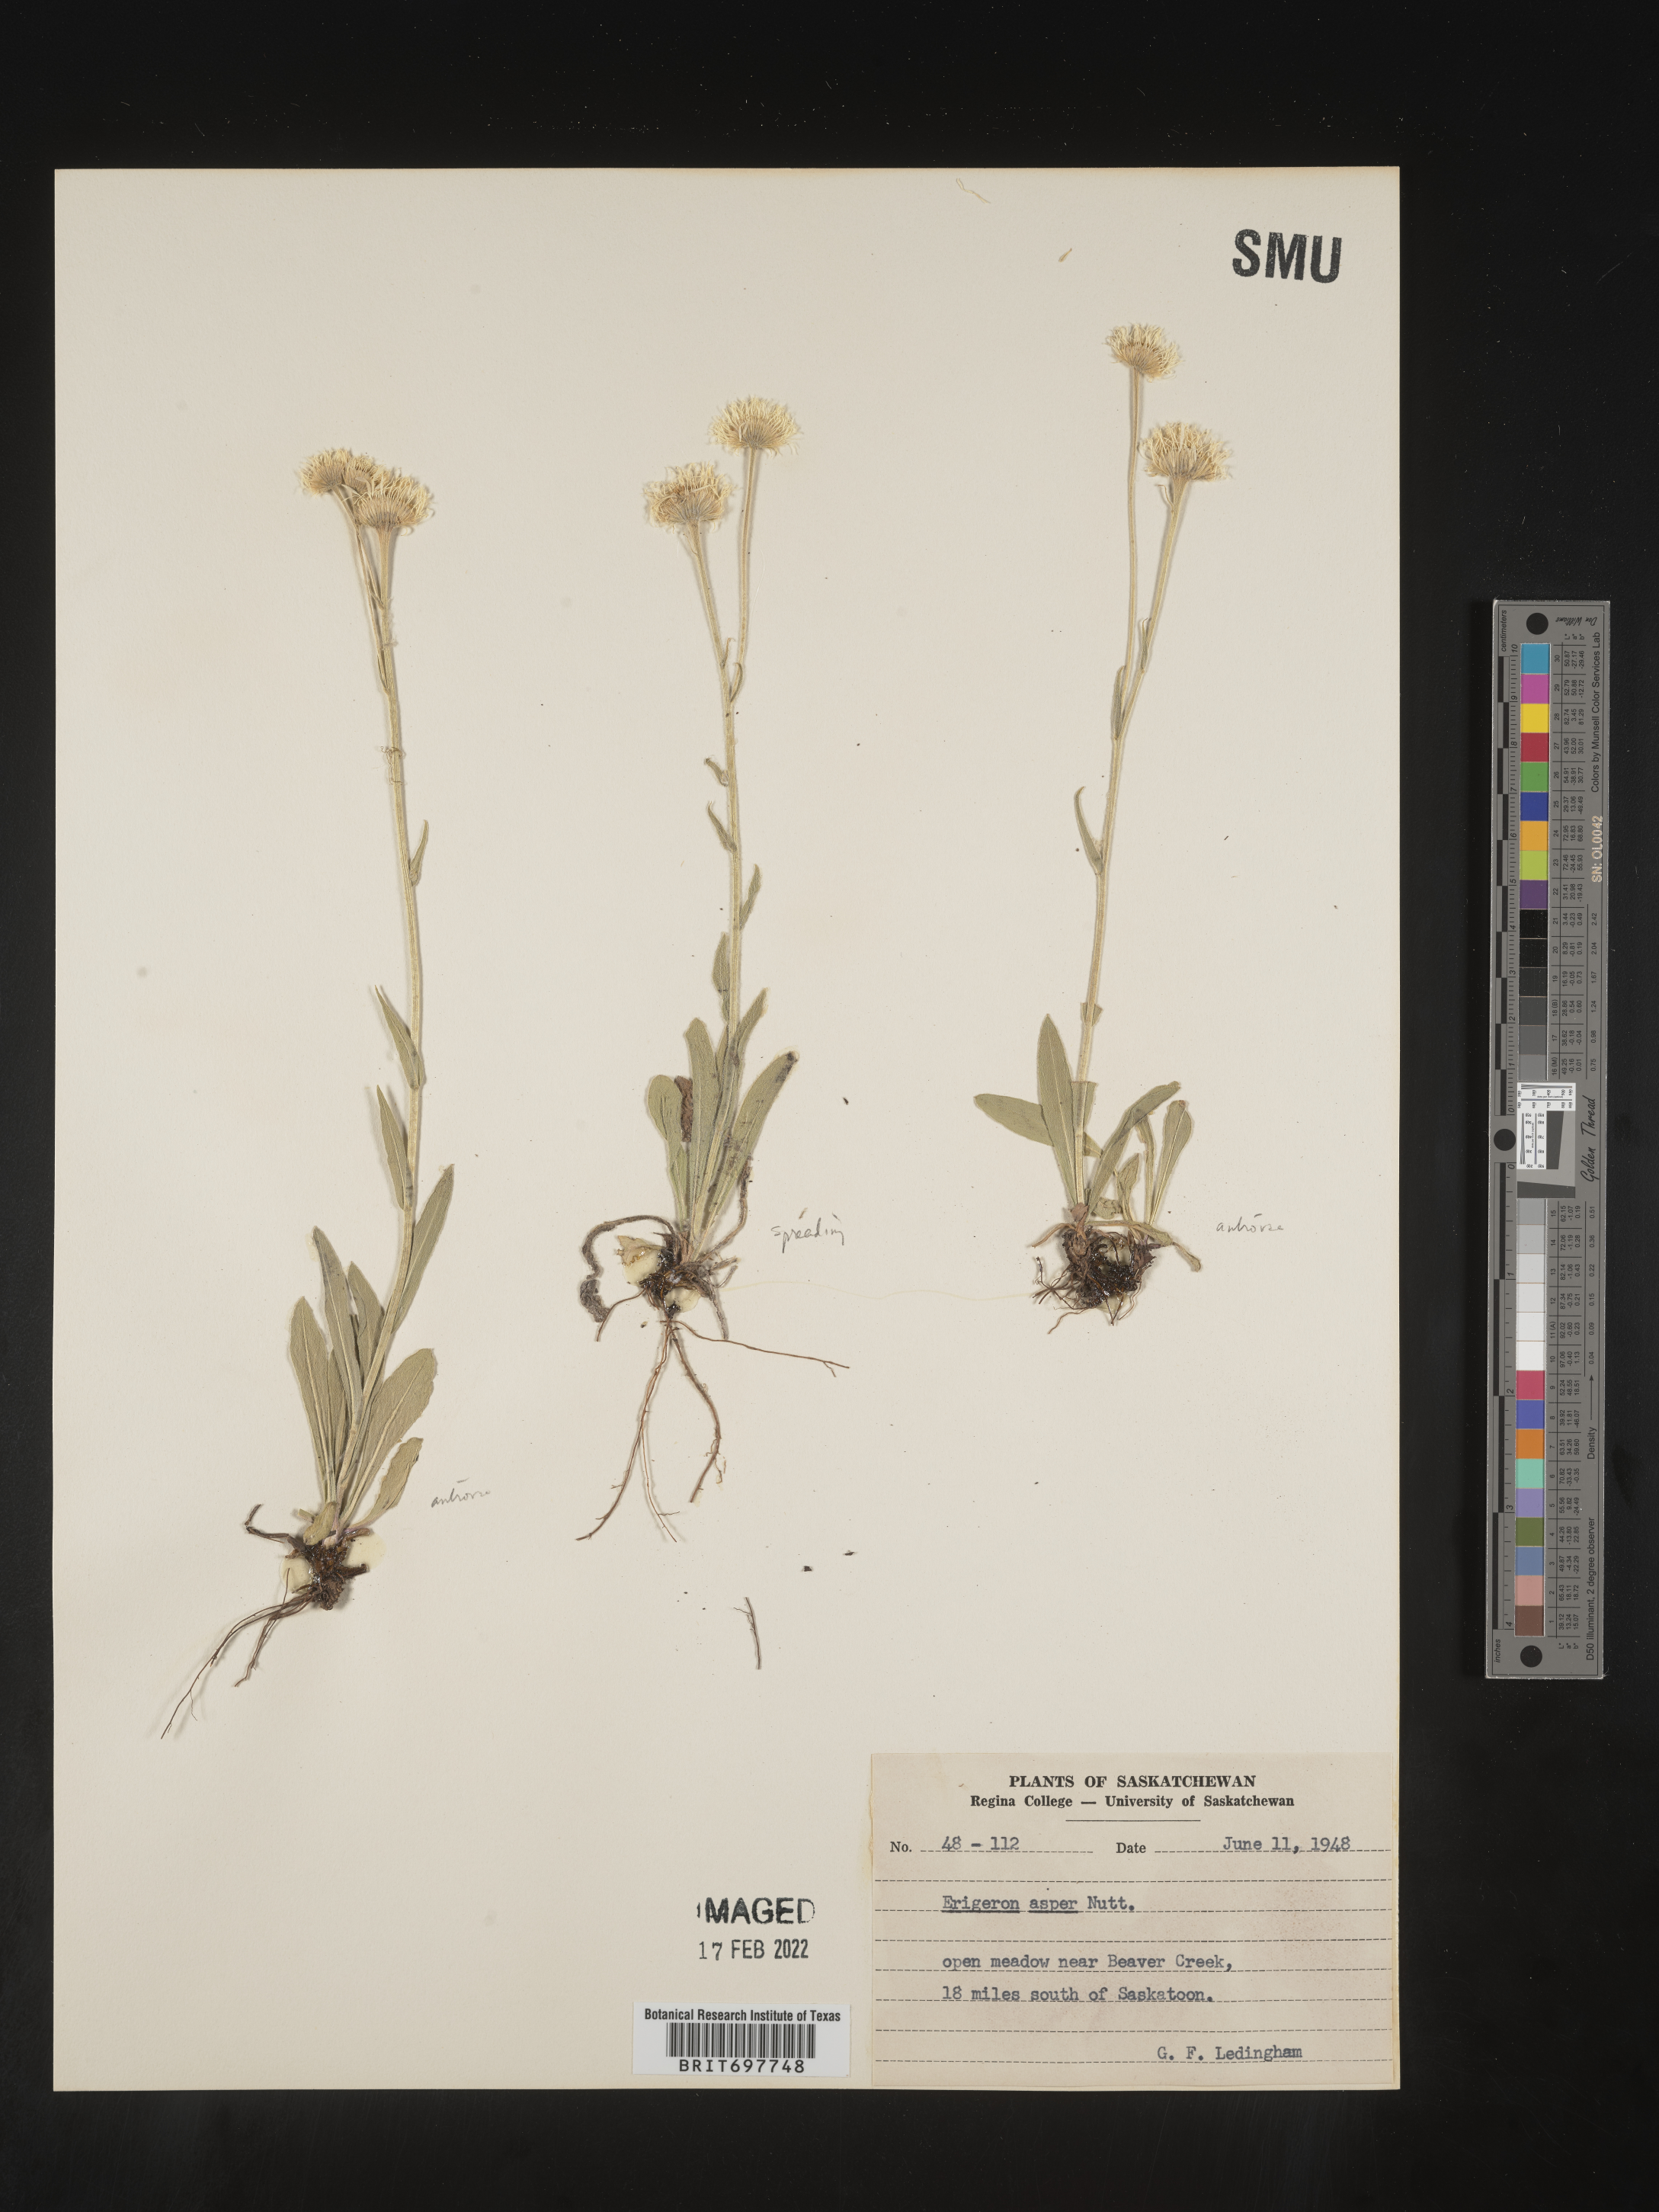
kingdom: Plantae
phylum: Tracheophyta
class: Magnoliopsida
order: Asterales
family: Asteraceae
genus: Erigeron
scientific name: Erigeron glabellus
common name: Smooth fleabane
